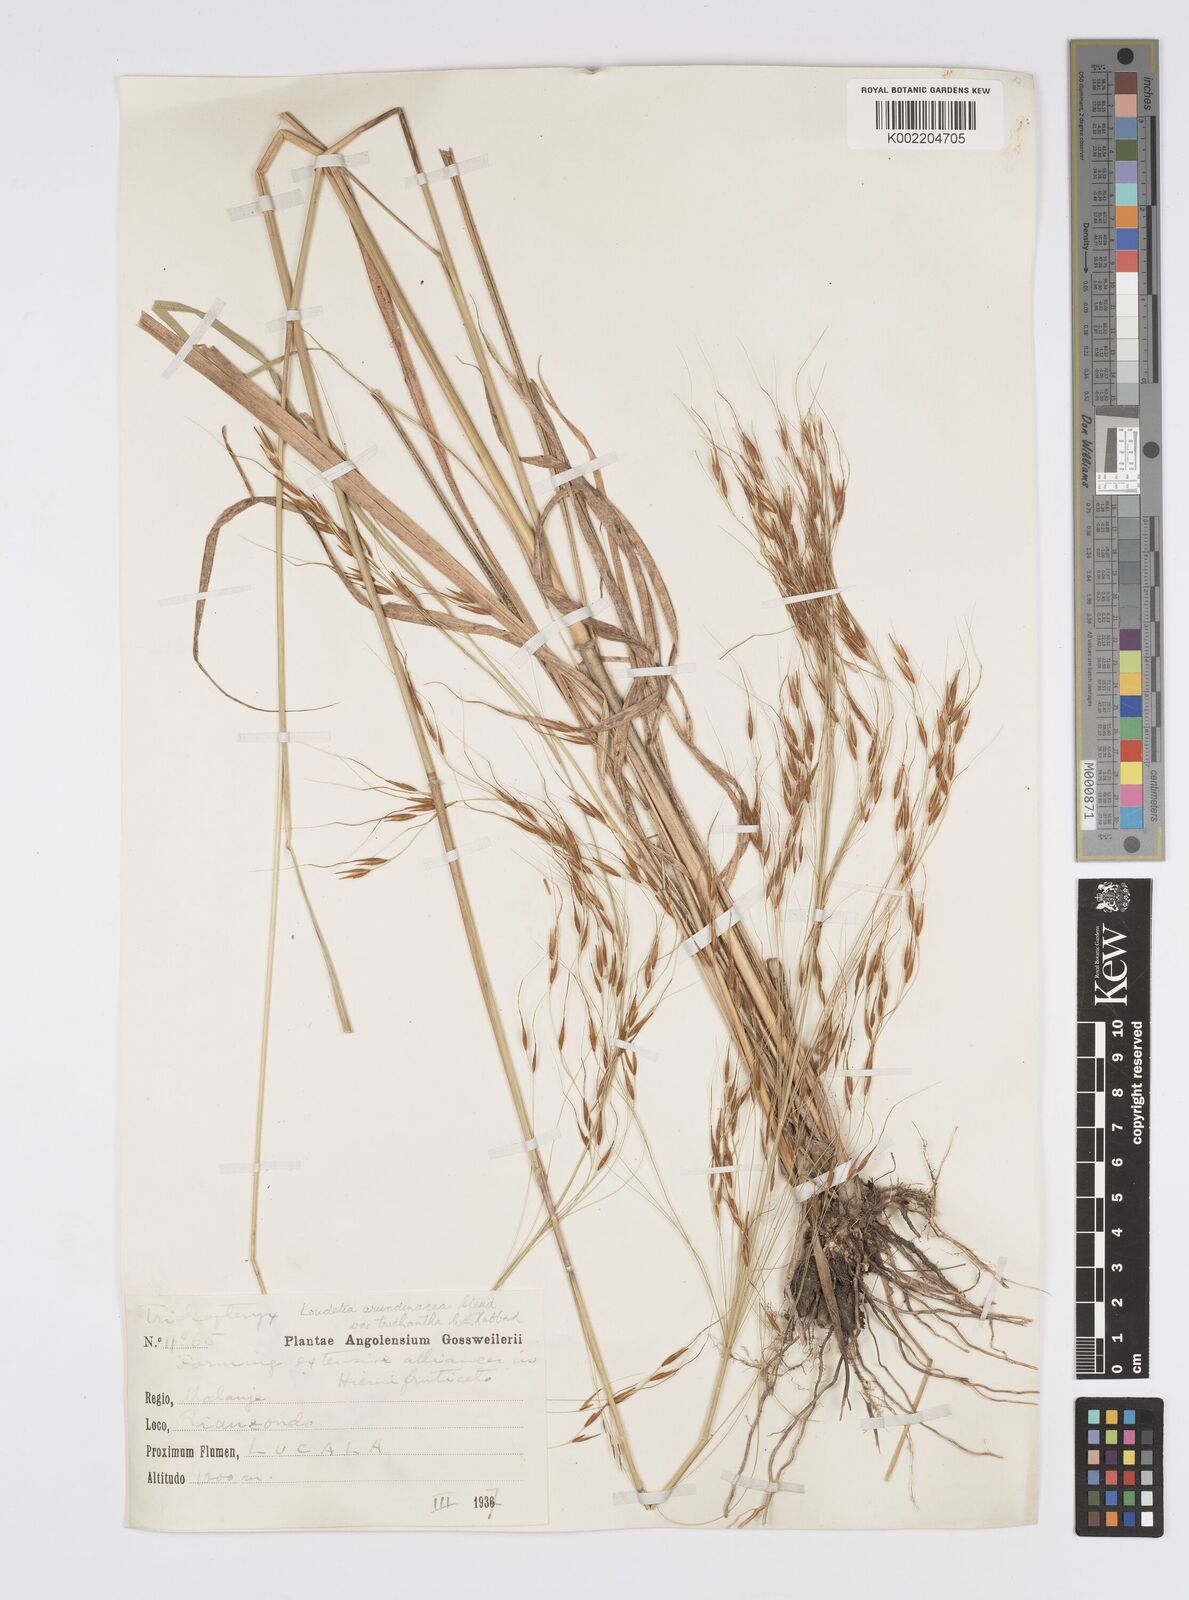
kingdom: Plantae
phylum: Tracheophyta
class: Liliopsida
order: Poales
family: Poaceae
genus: Loudetia
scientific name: Loudetia arundinacea
